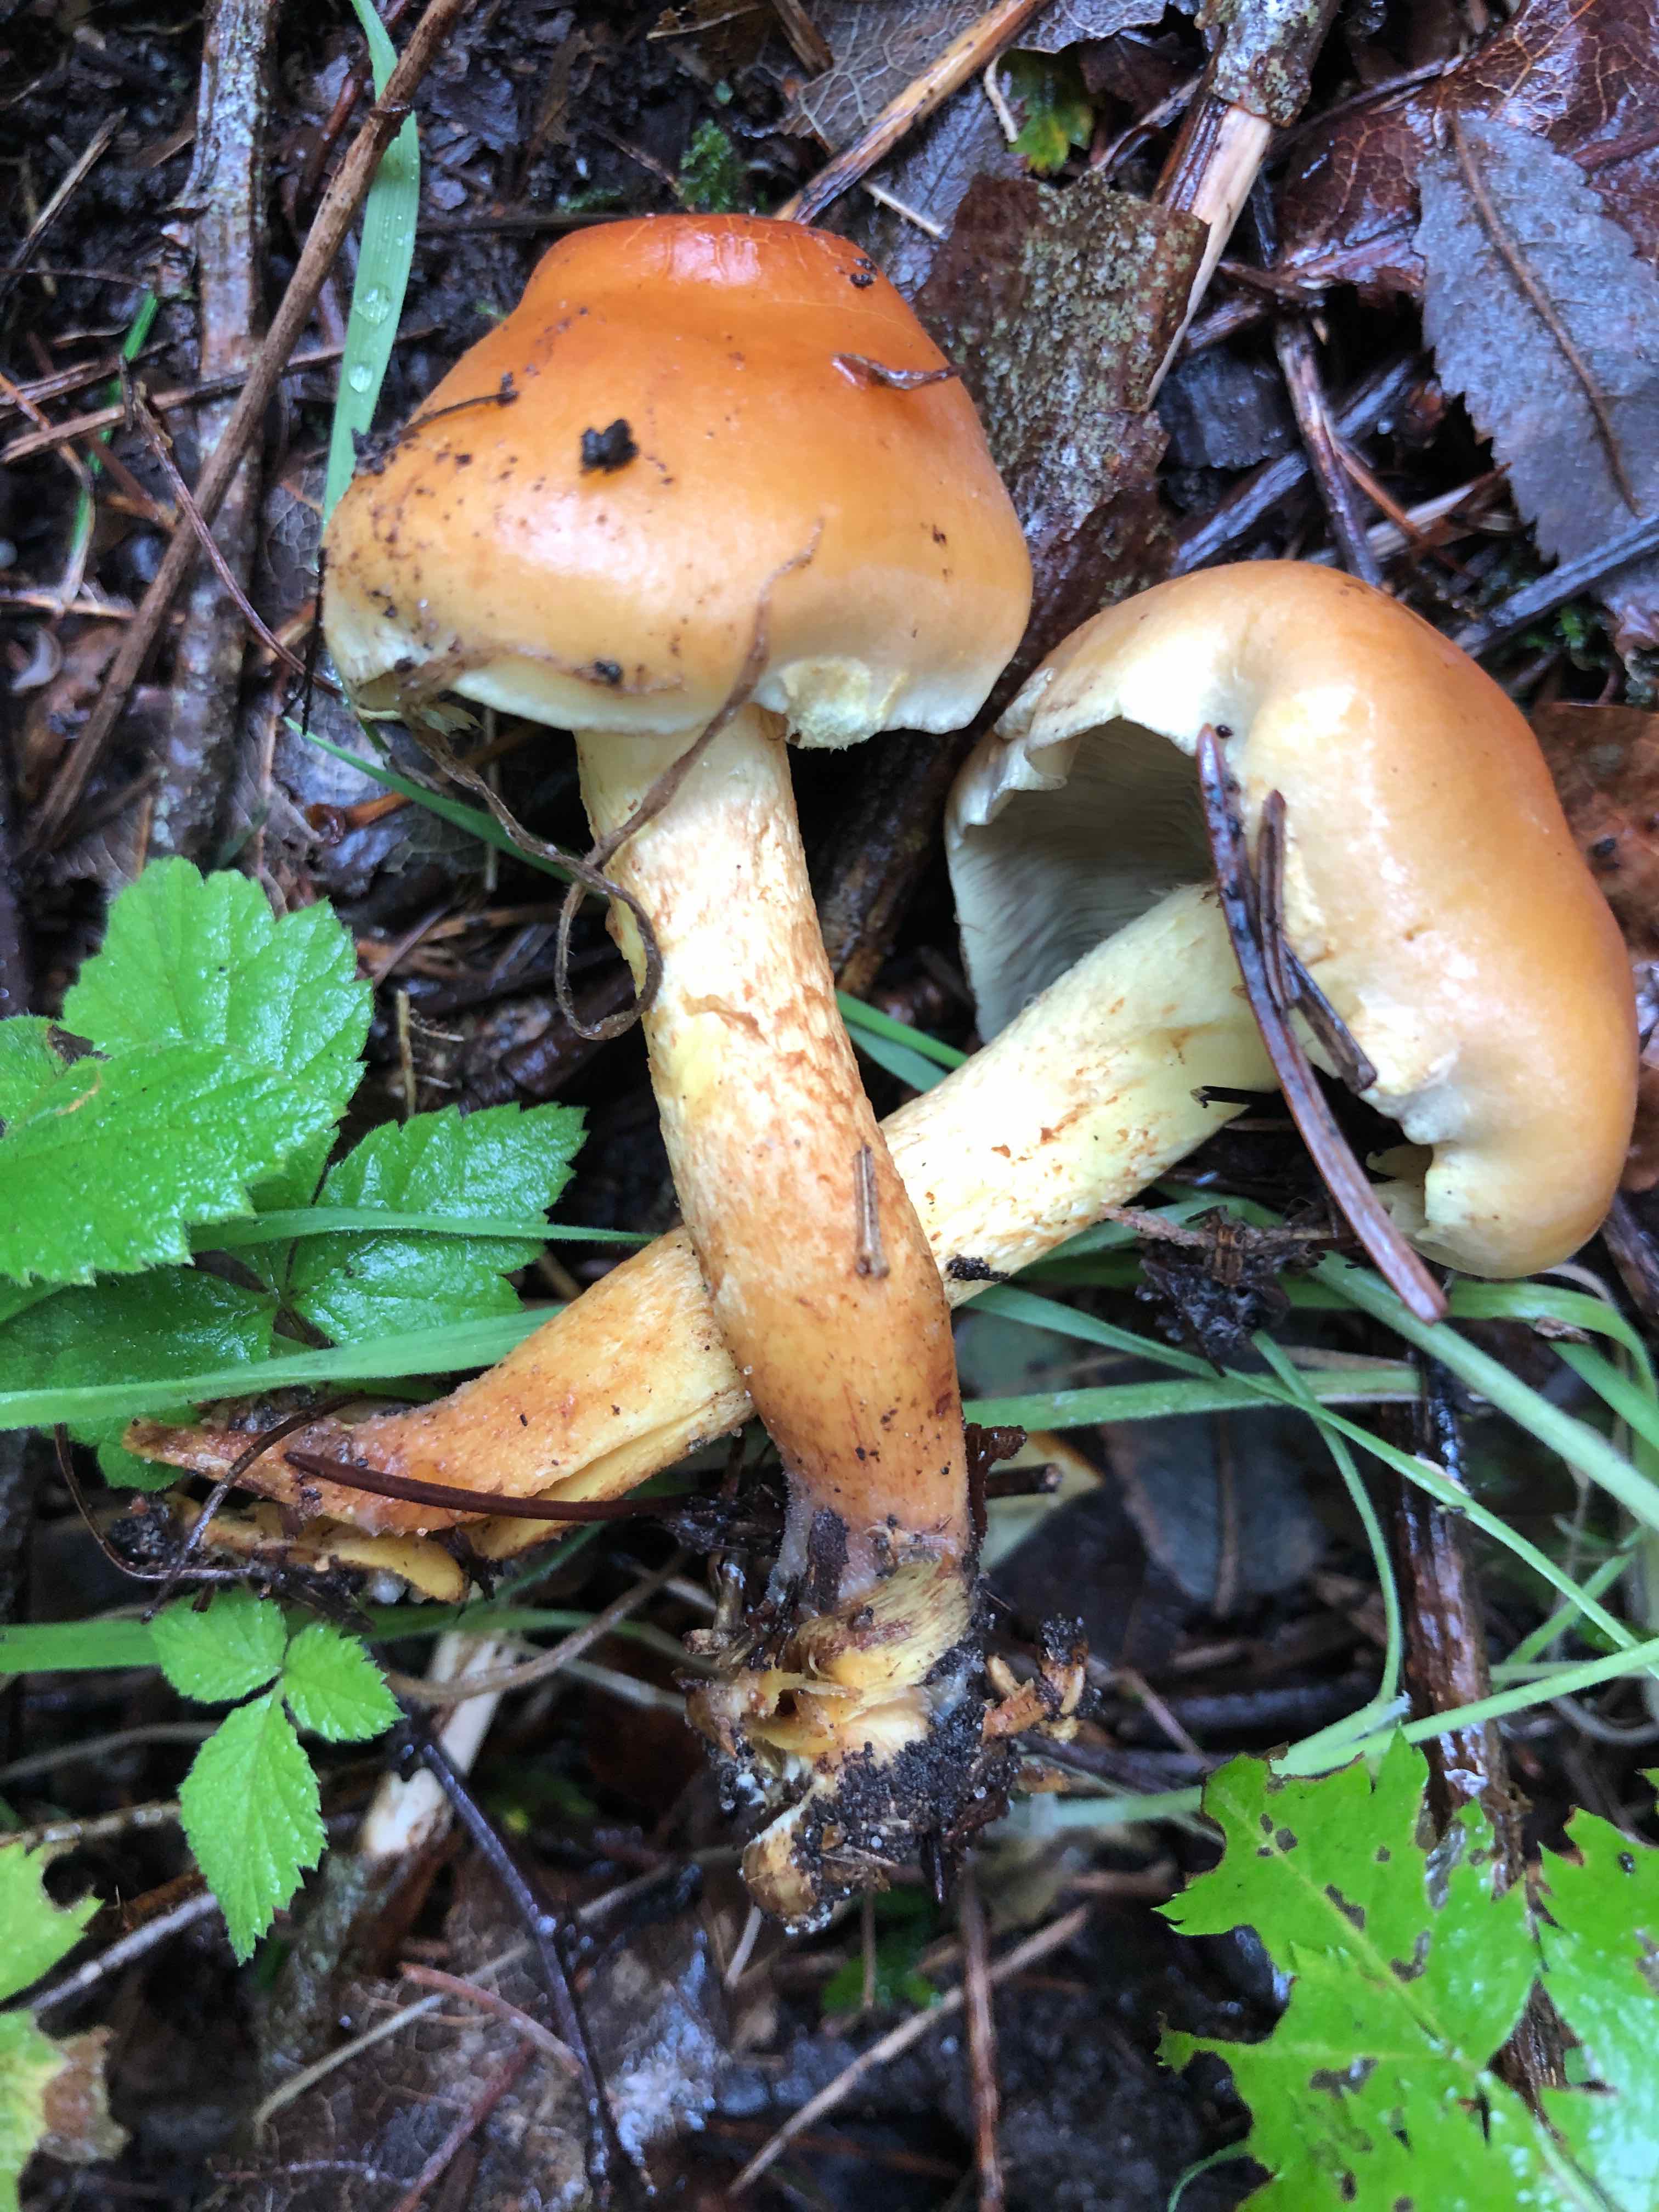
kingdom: Fungi
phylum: Basidiomycota
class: Agaricomycetes
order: Agaricales
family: Strophariaceae
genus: Hypholoma
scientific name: Hypholoma fasciculare
